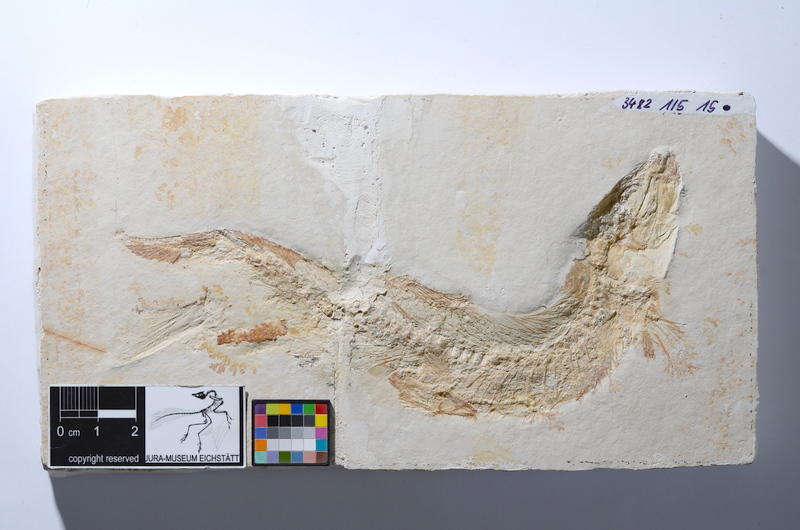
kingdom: Animalia
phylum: Chordata
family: Ascalaboidae
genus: Tharsis
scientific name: Tharsis dubius
